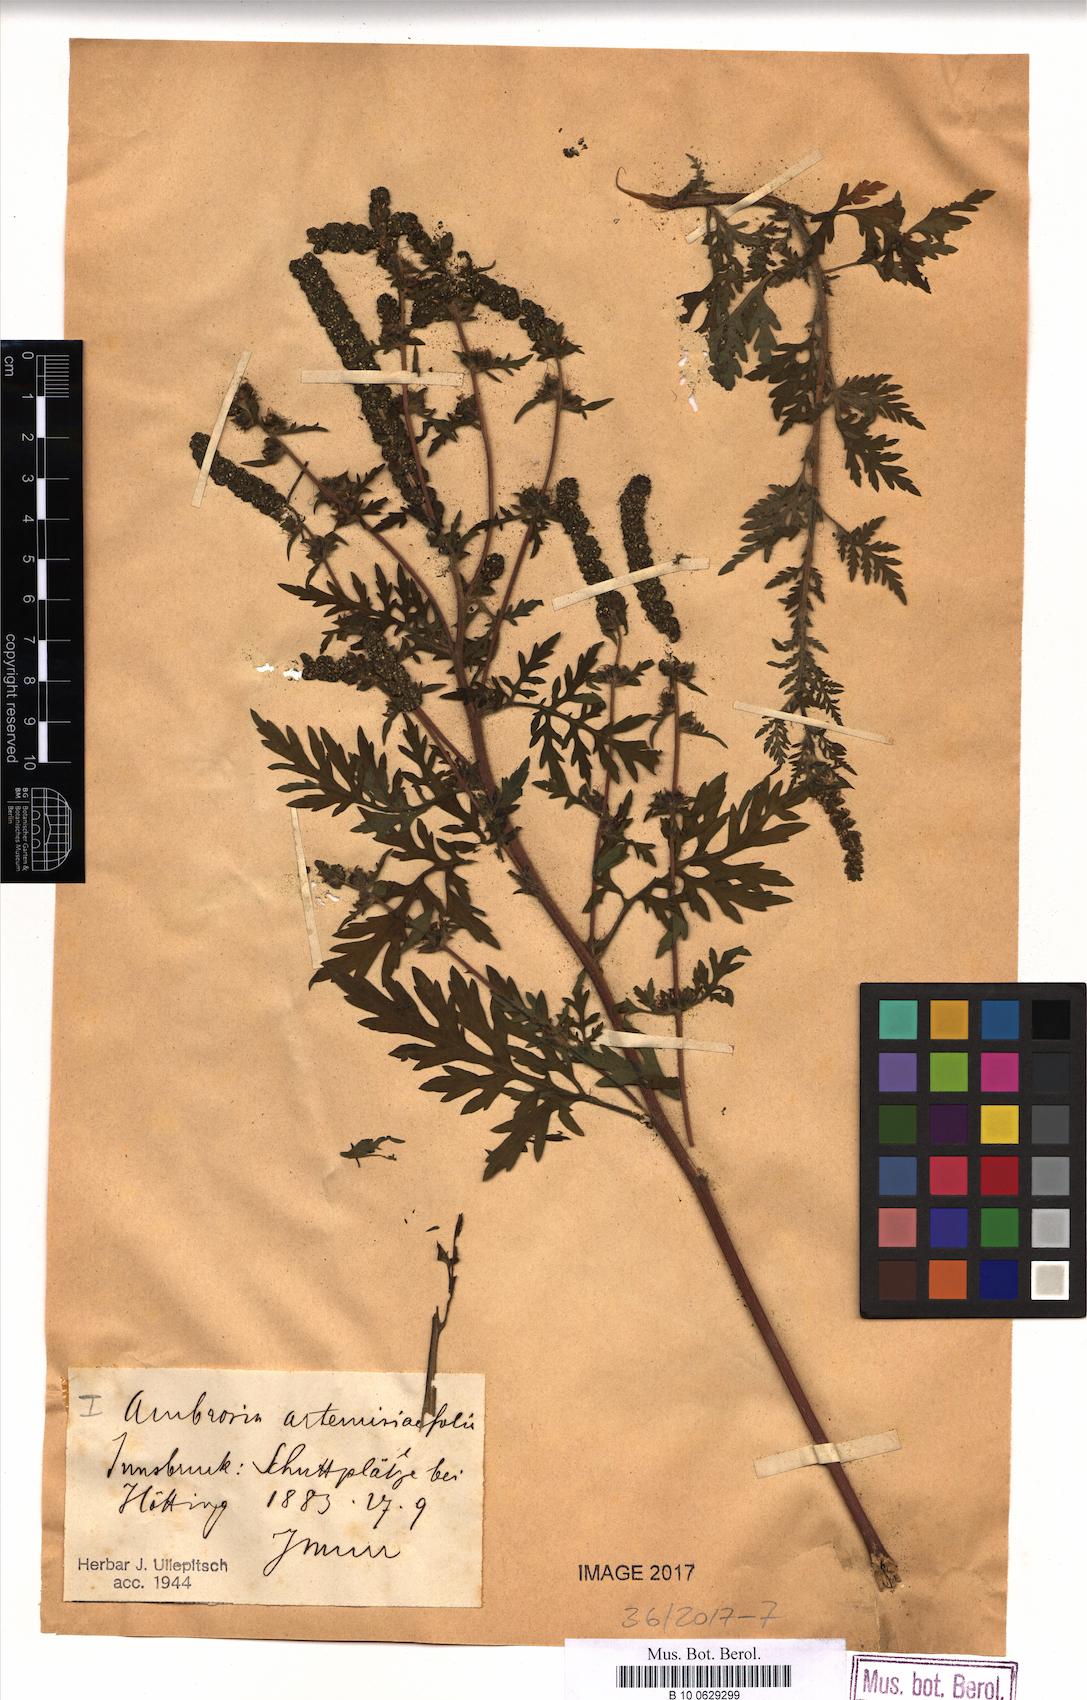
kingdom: Plantae
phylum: Tracheophyta
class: Magnoliopsida
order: Asterales
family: Asteraceae
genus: Ambrosia
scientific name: Ambrosia artemisiifolia
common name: Annual ragweed
